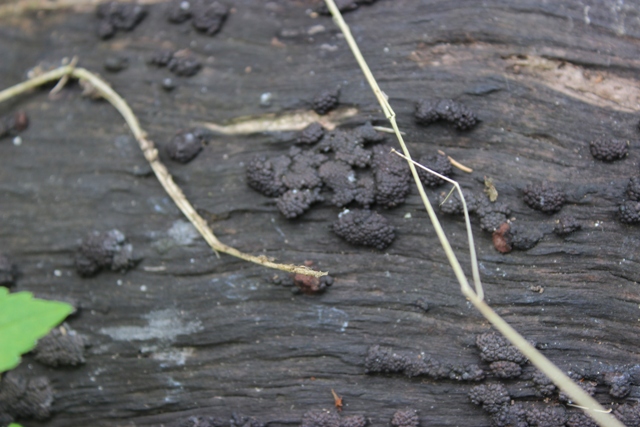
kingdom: Fungi
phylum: Ascomycota
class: Sordariomycetes
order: Xylariales
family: Hypoxylaceae
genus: Jackrogersella
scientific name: Jackrogersella multiformis
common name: foranderlig kulbær
